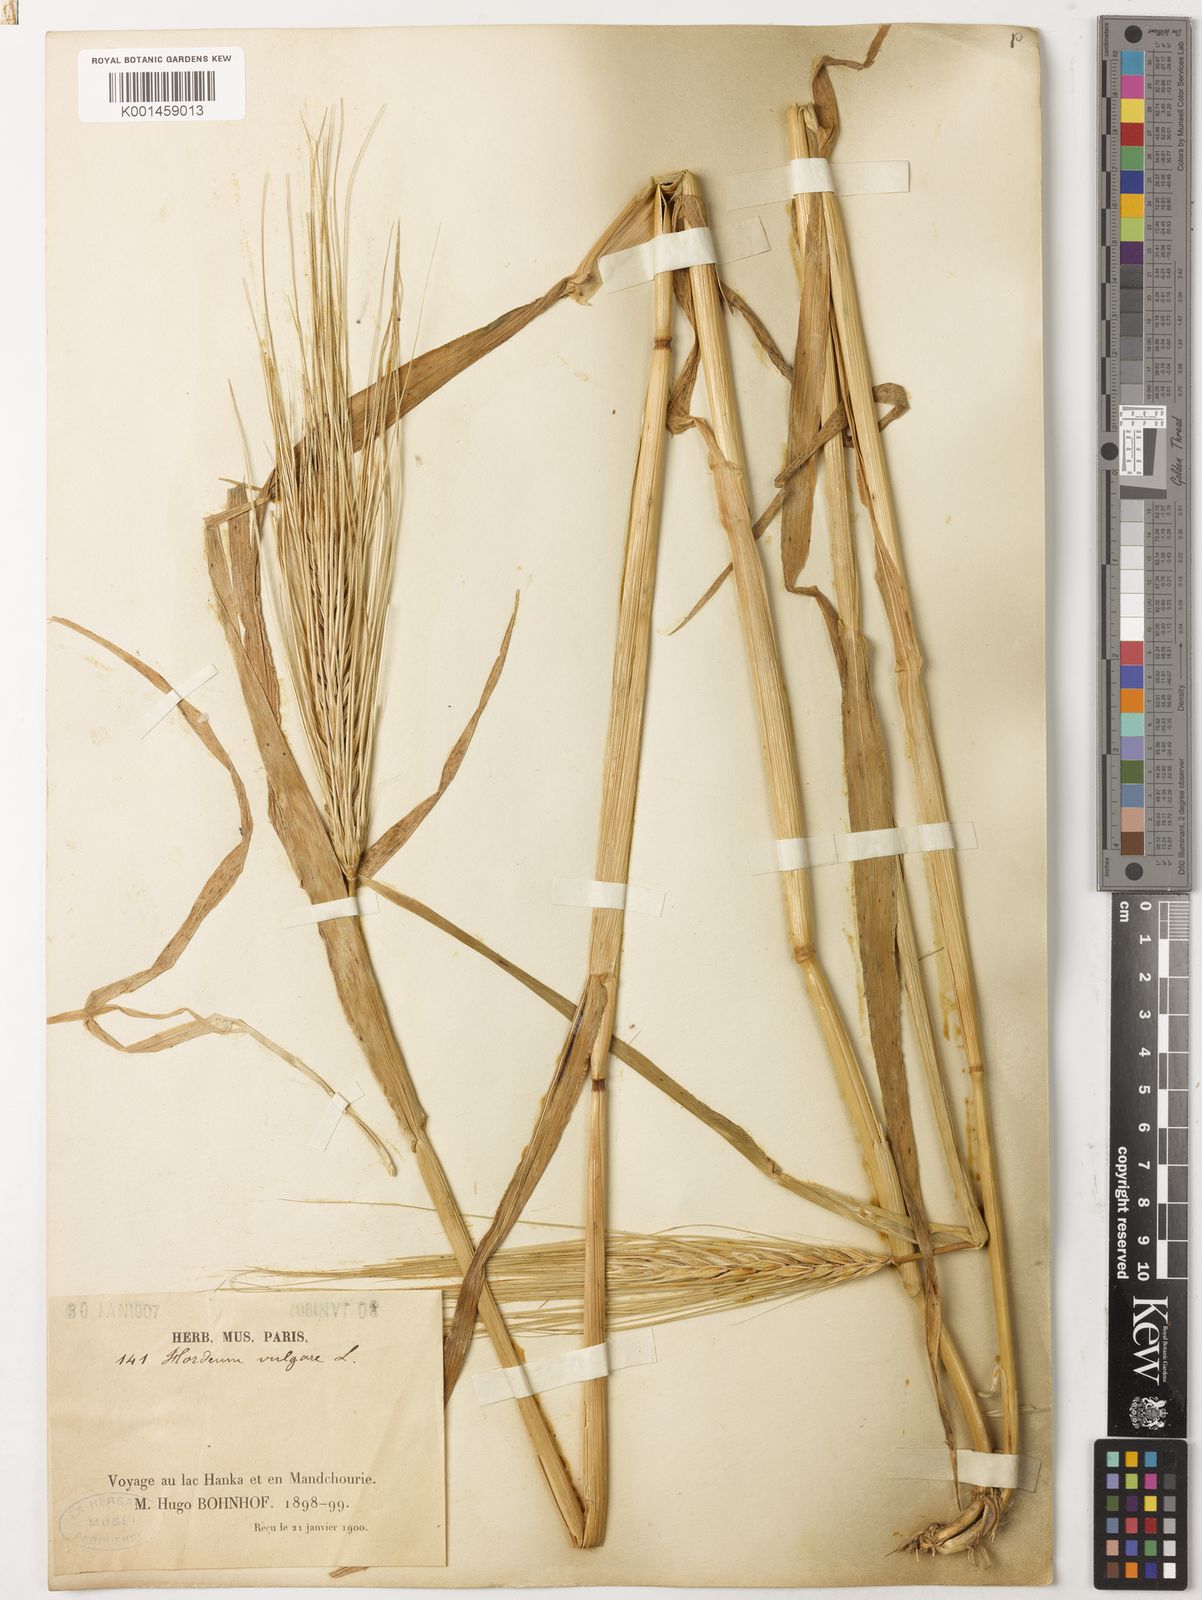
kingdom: Plantae
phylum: Tracheophyta
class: Liliopsida
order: Poales
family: Poaceae
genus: Hordeum
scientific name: Hordeum vulgare
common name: Common barley
